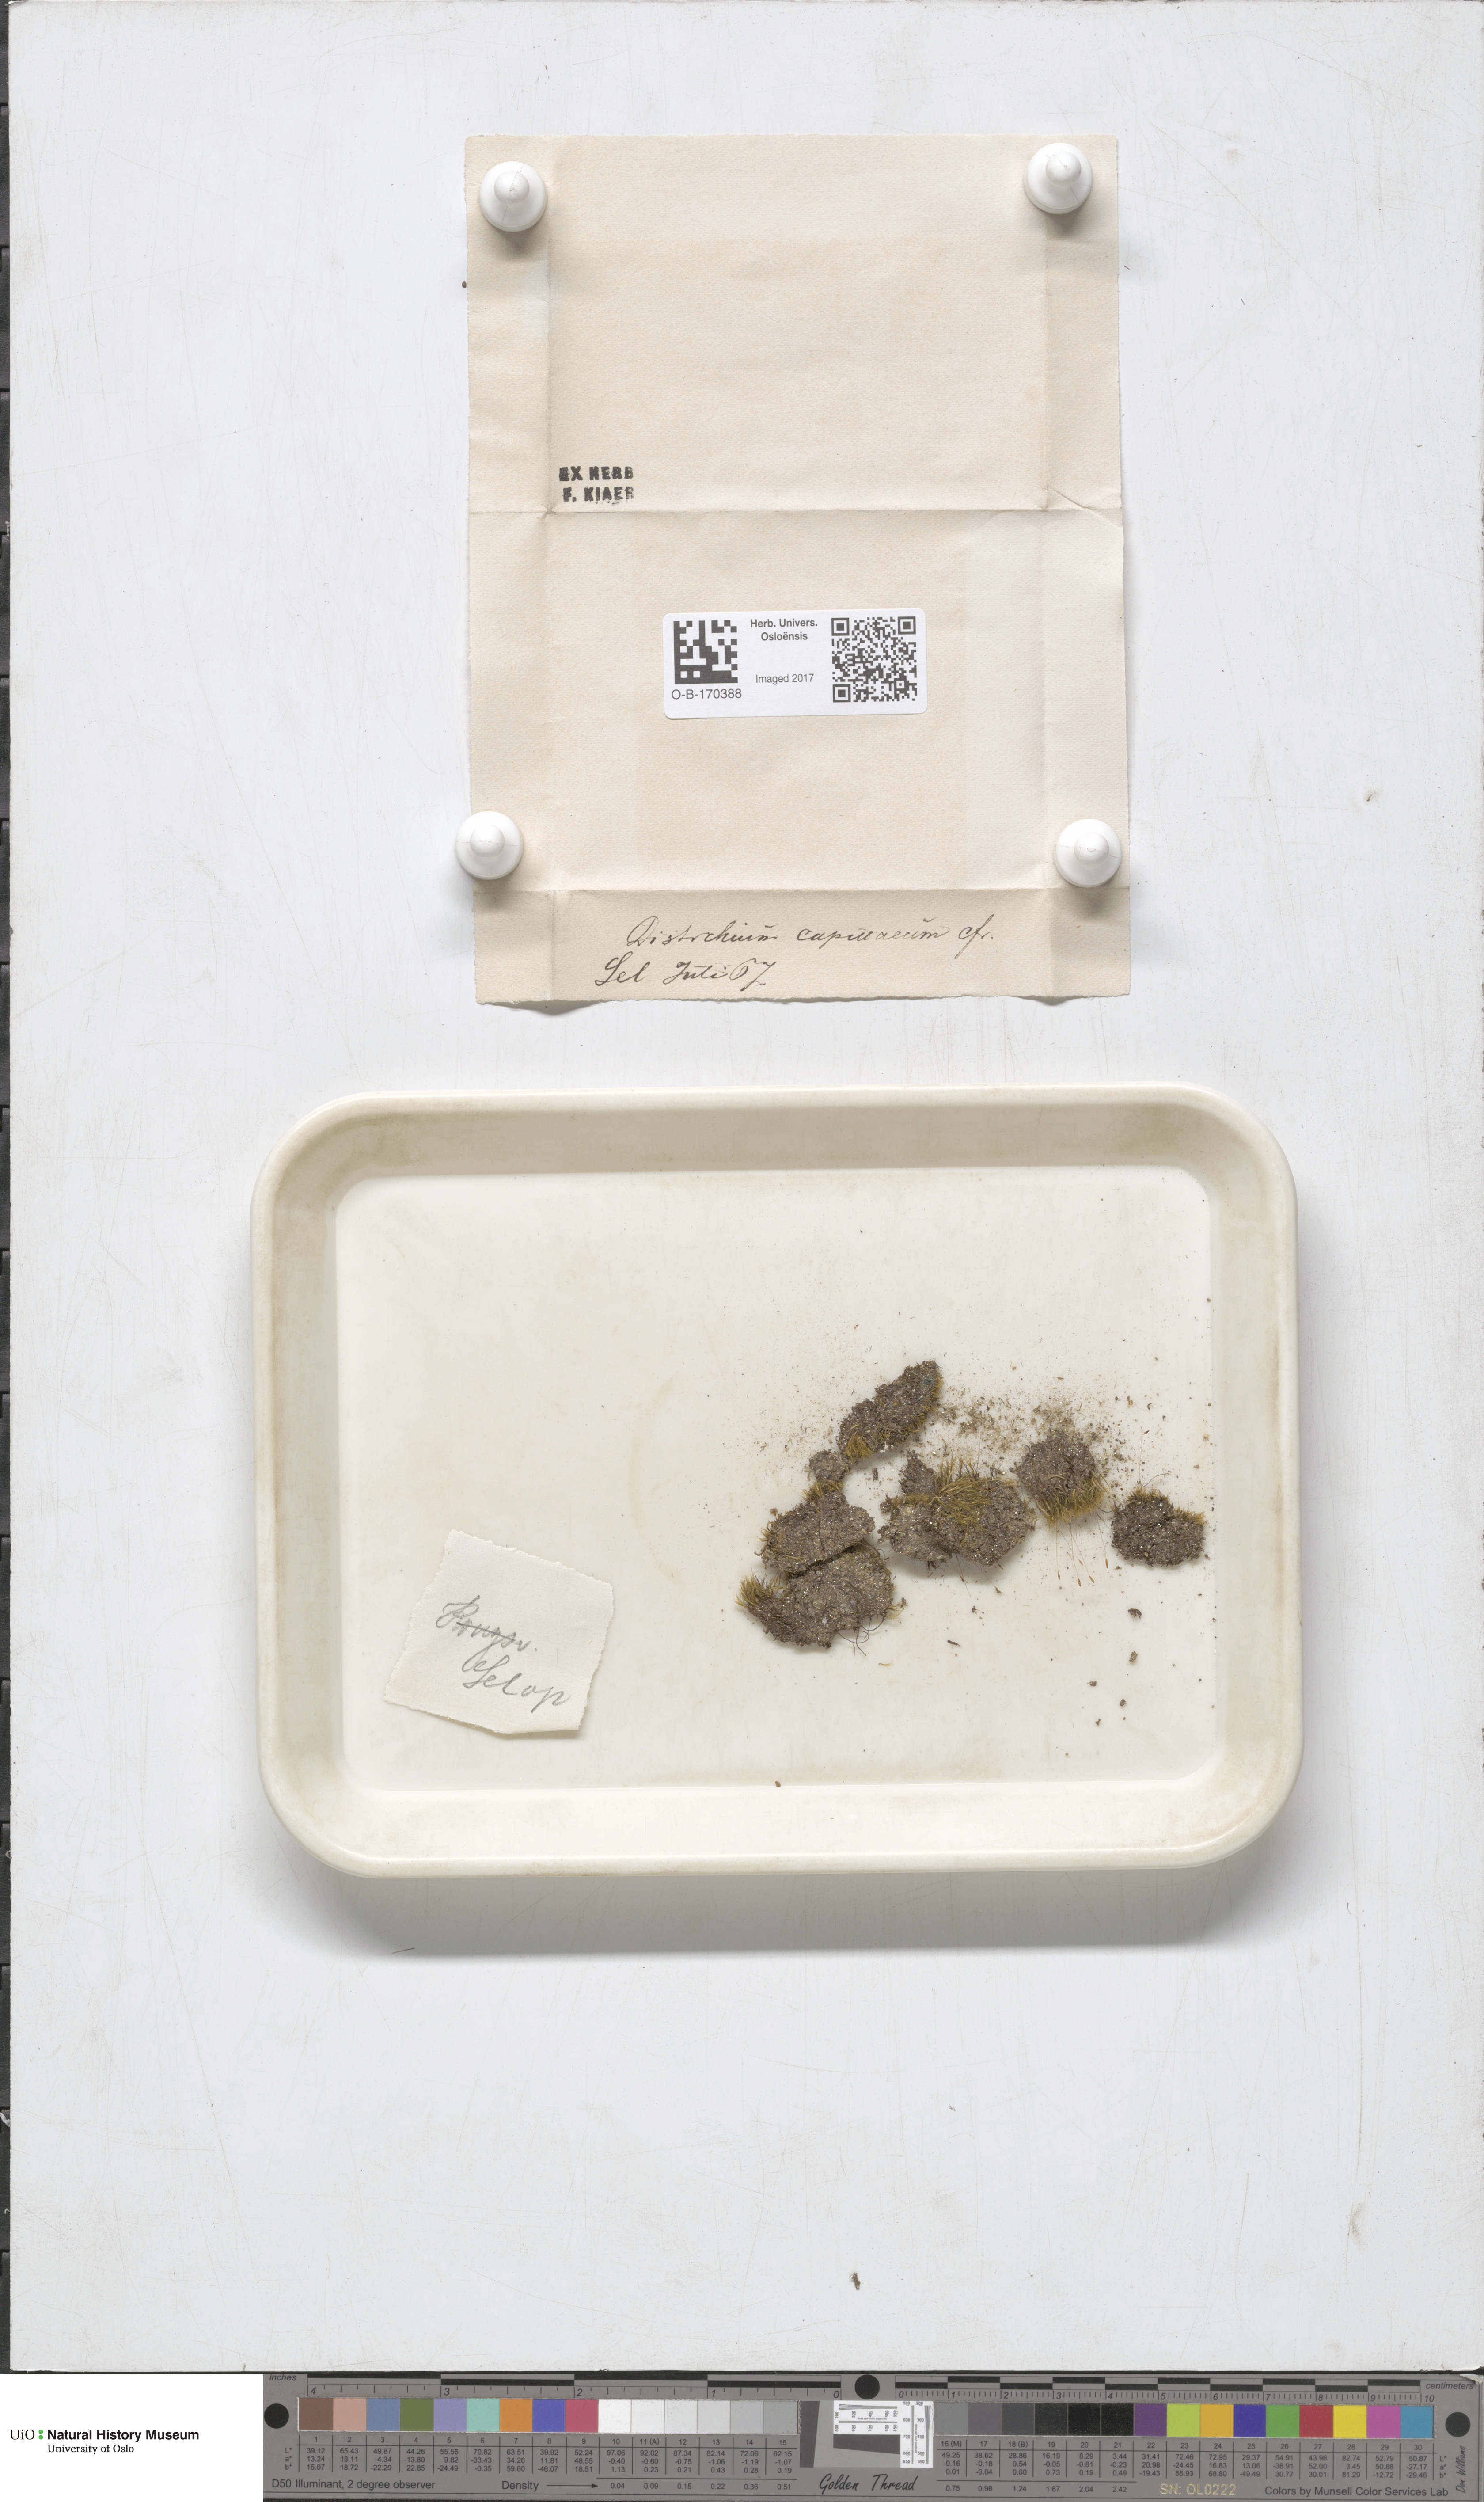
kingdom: Plantae
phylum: Bryophyta
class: Bryopsida
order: Scouleriales
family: Distichiaceae
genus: Distichium
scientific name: Distichium capillaceum
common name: Erect-fruited iris moss
